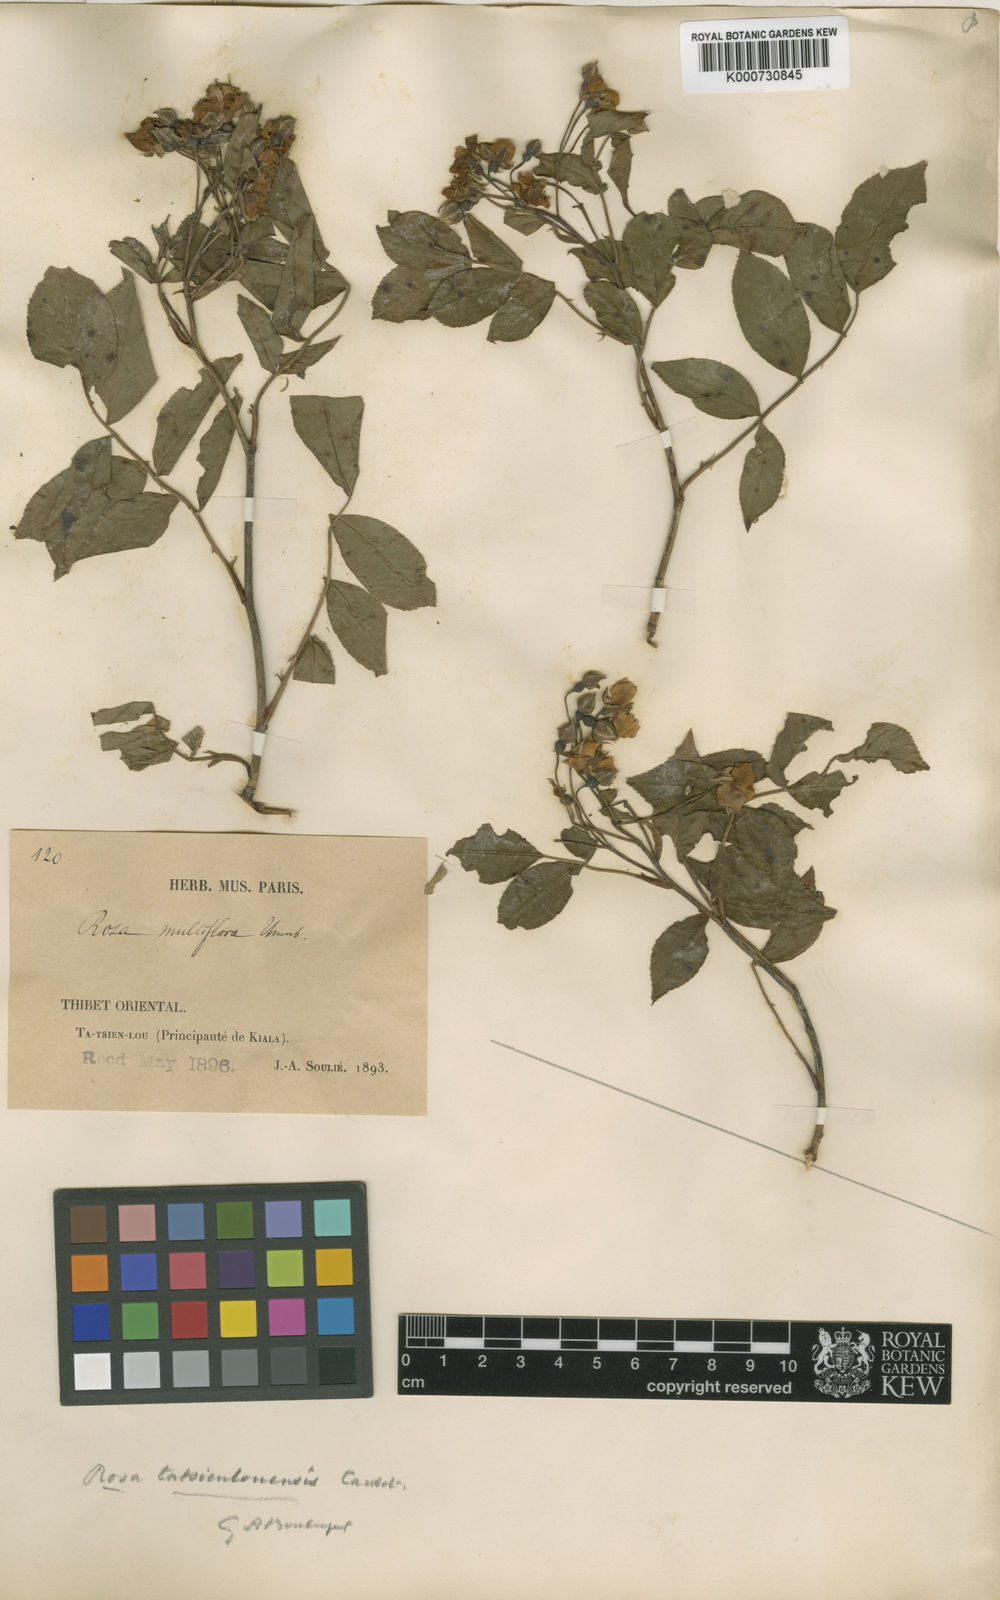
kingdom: Plantae
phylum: Tracheophyta
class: Magnoliopsida
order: Rosales
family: Rosaceae
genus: Rosa
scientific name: Rosa filipes
